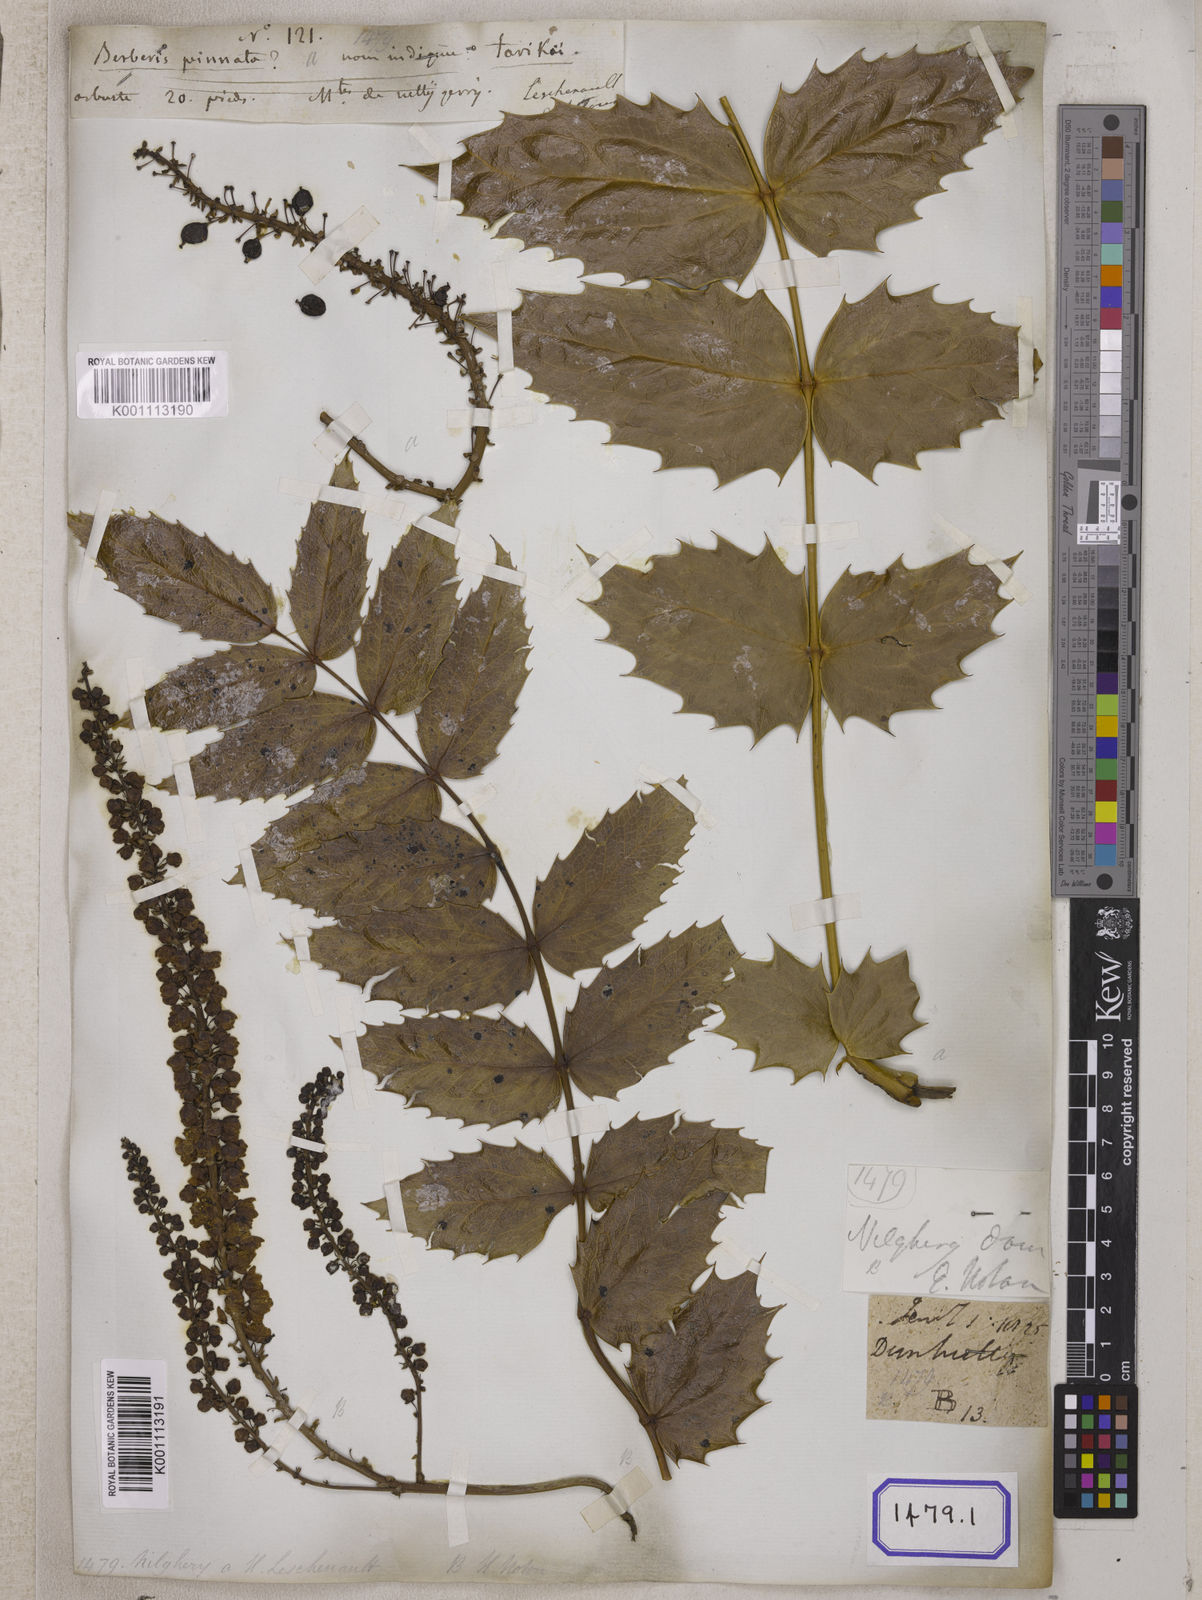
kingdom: Plantae
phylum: Tracheophyta
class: Magnoliopsida
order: Ranunculales
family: Berberidaceae
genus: Berberis
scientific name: Berberis
